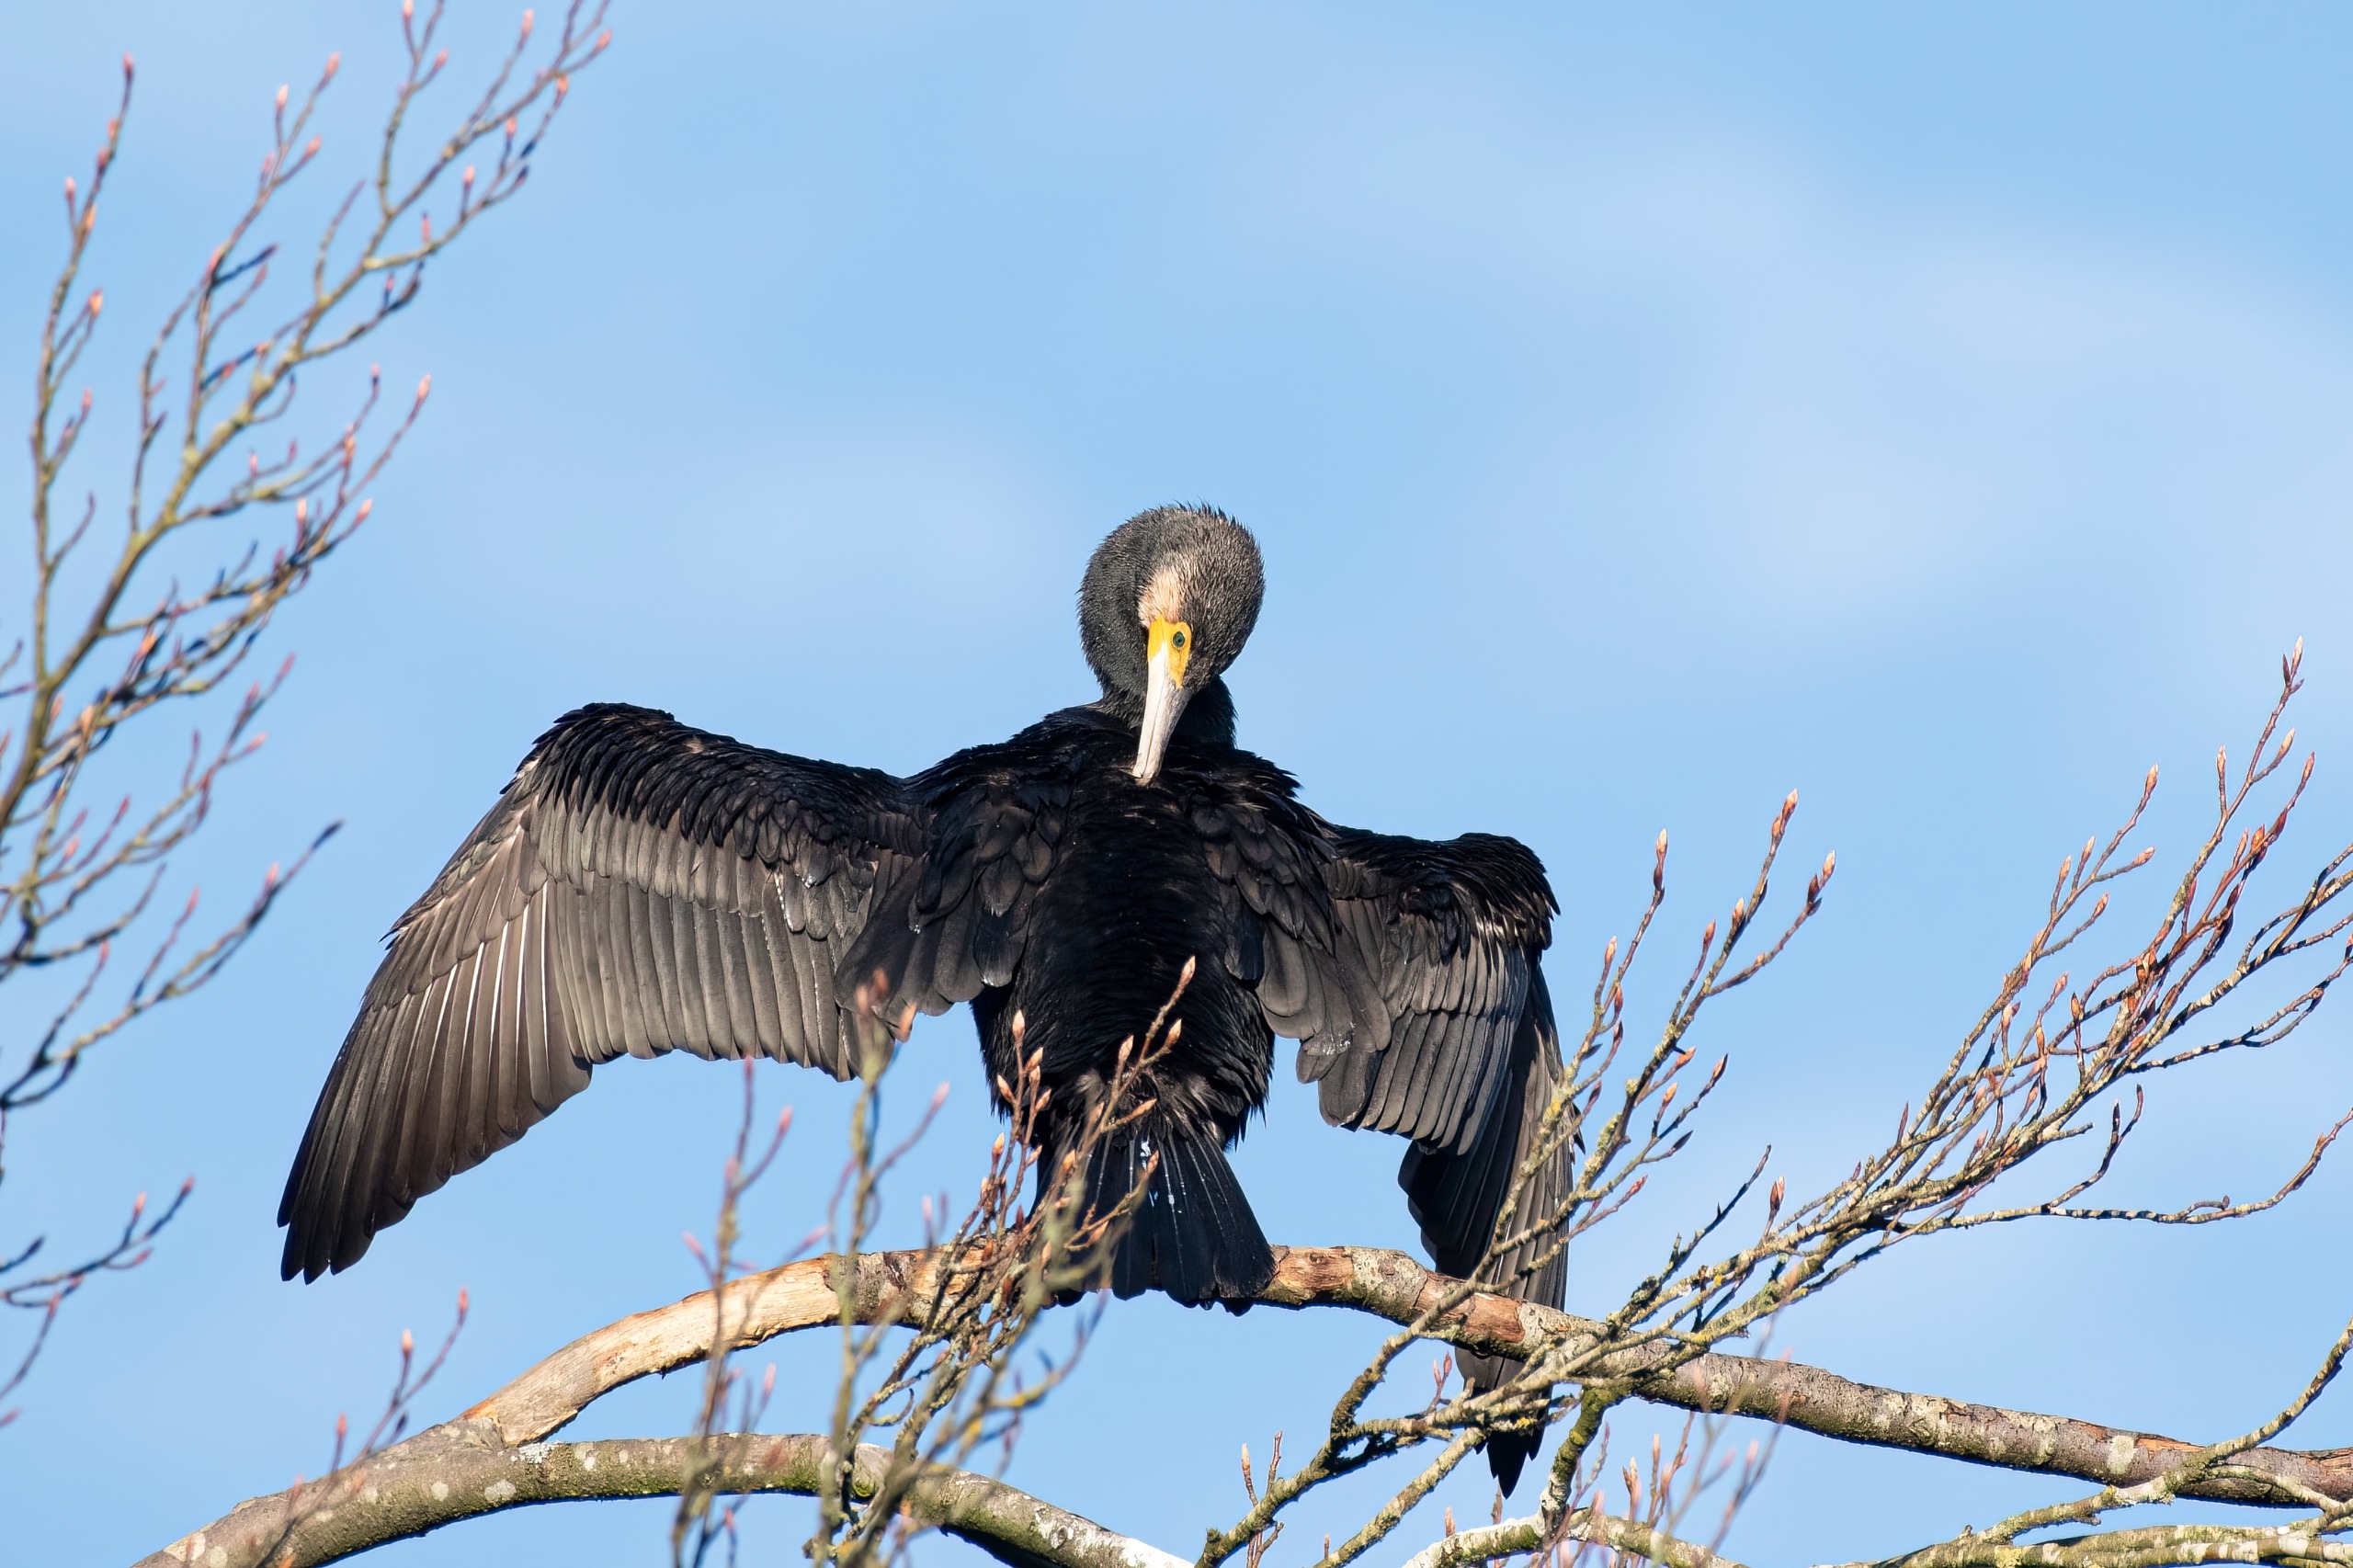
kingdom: Animalia
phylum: Chordata
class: Aves
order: Suliformes
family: Phalacrocoracidae
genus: Phalacrocorax
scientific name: Phalacrocorax carbo
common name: Skarv
